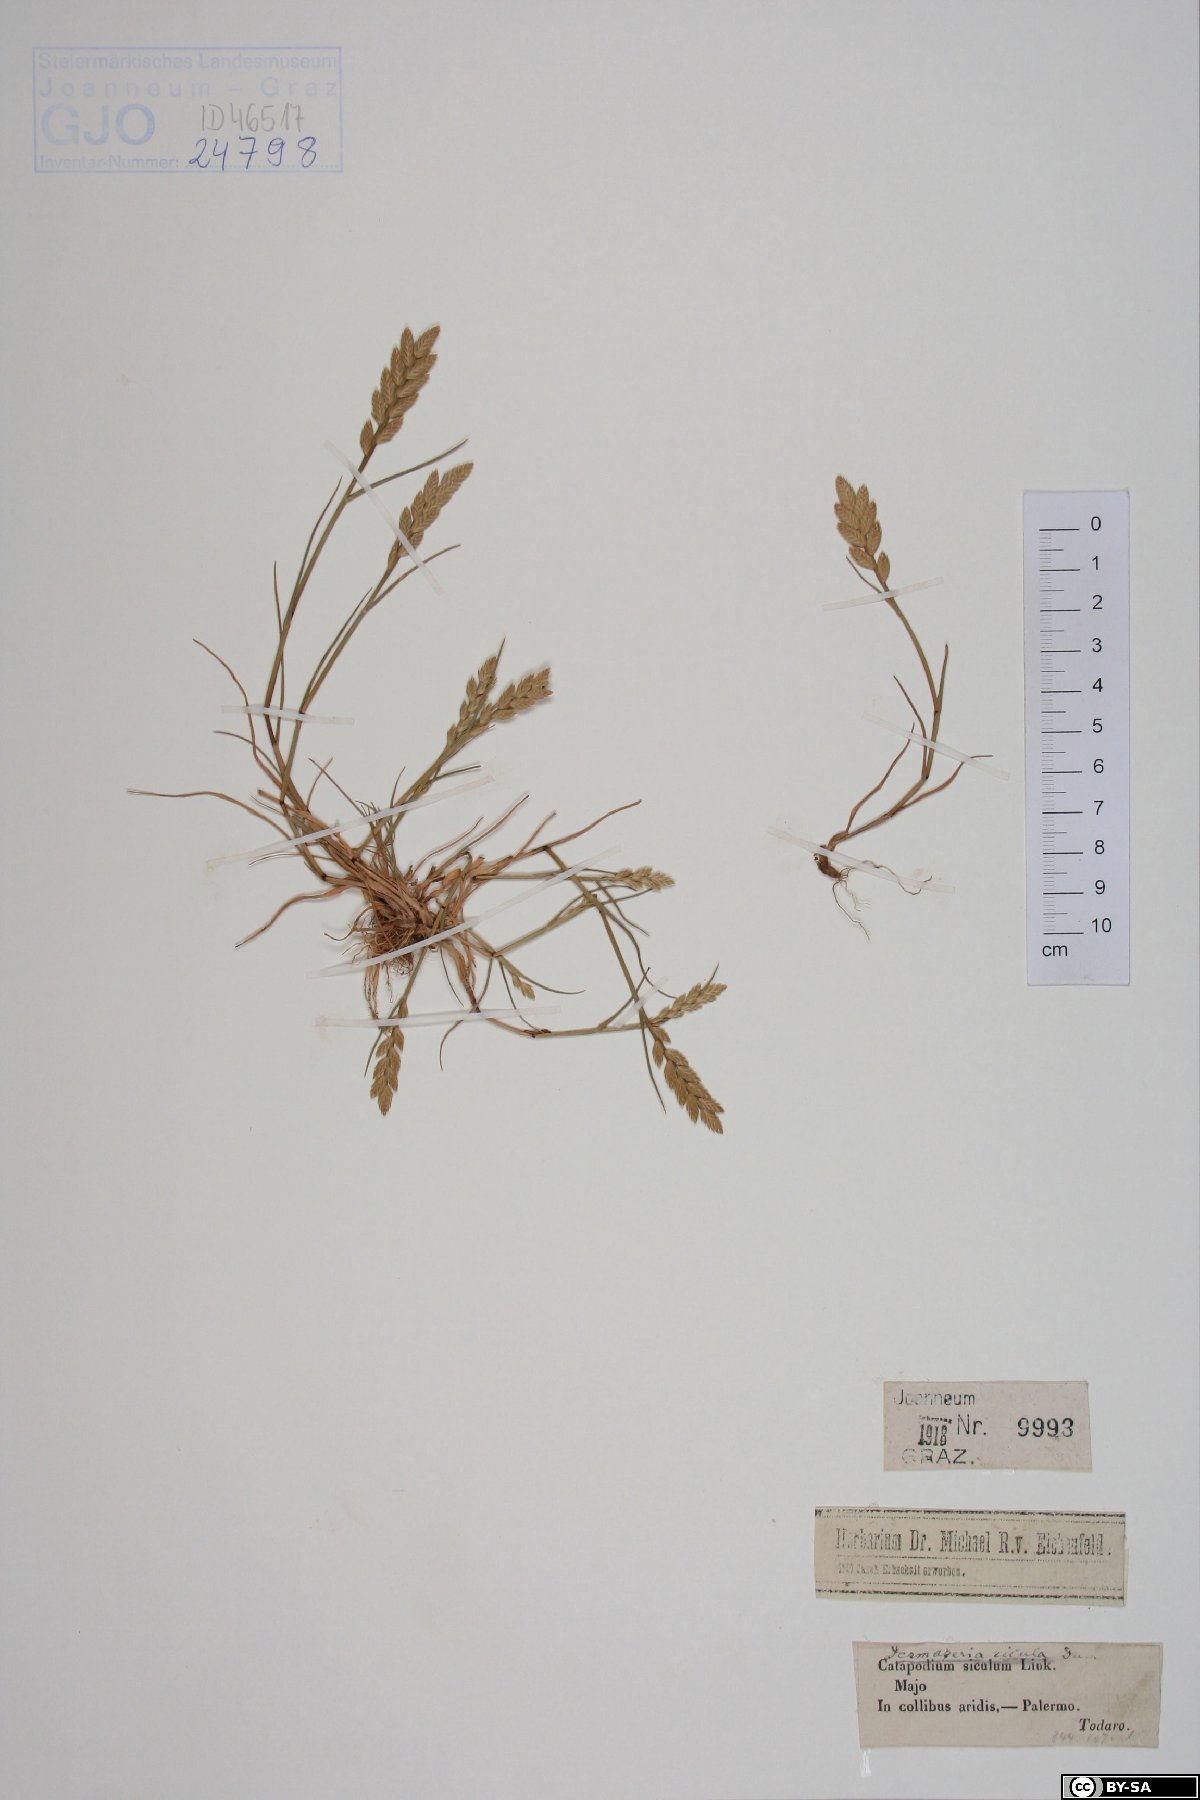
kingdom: Plantae
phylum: Tracheophyta
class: Liliopsida
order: Asparagales
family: Orchidaceae
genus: Chamorchis
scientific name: Chamorchis alpina
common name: Alpine chamorchis
